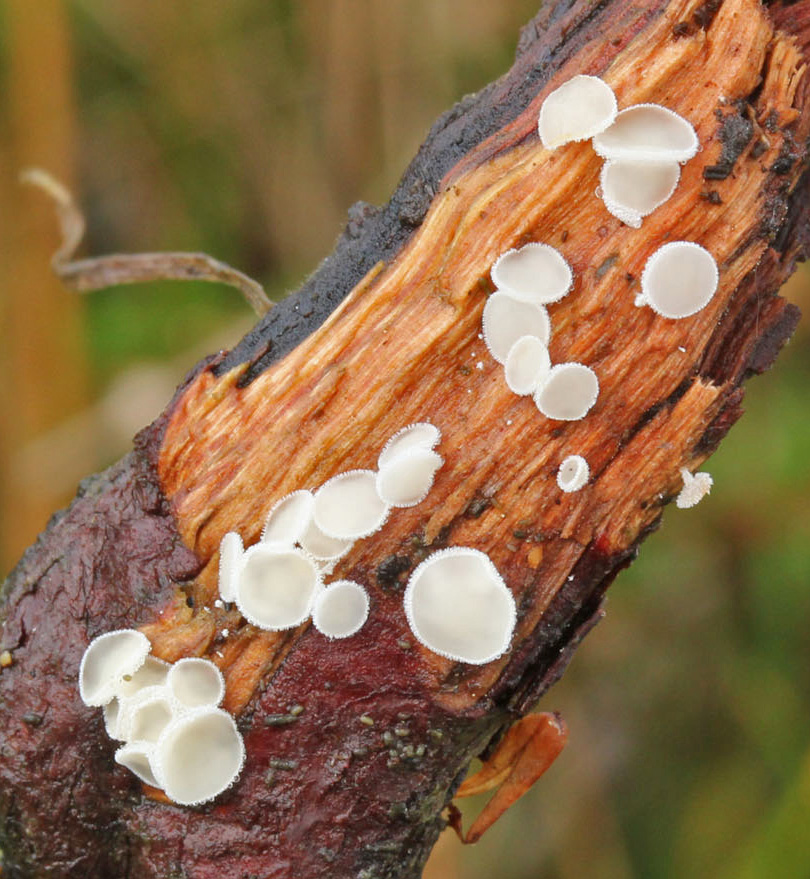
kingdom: Fungi
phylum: Ascomycota
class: Leotiomycetes
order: Helotiales
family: Lachnaceae
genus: Lachnum
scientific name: Lachnum
